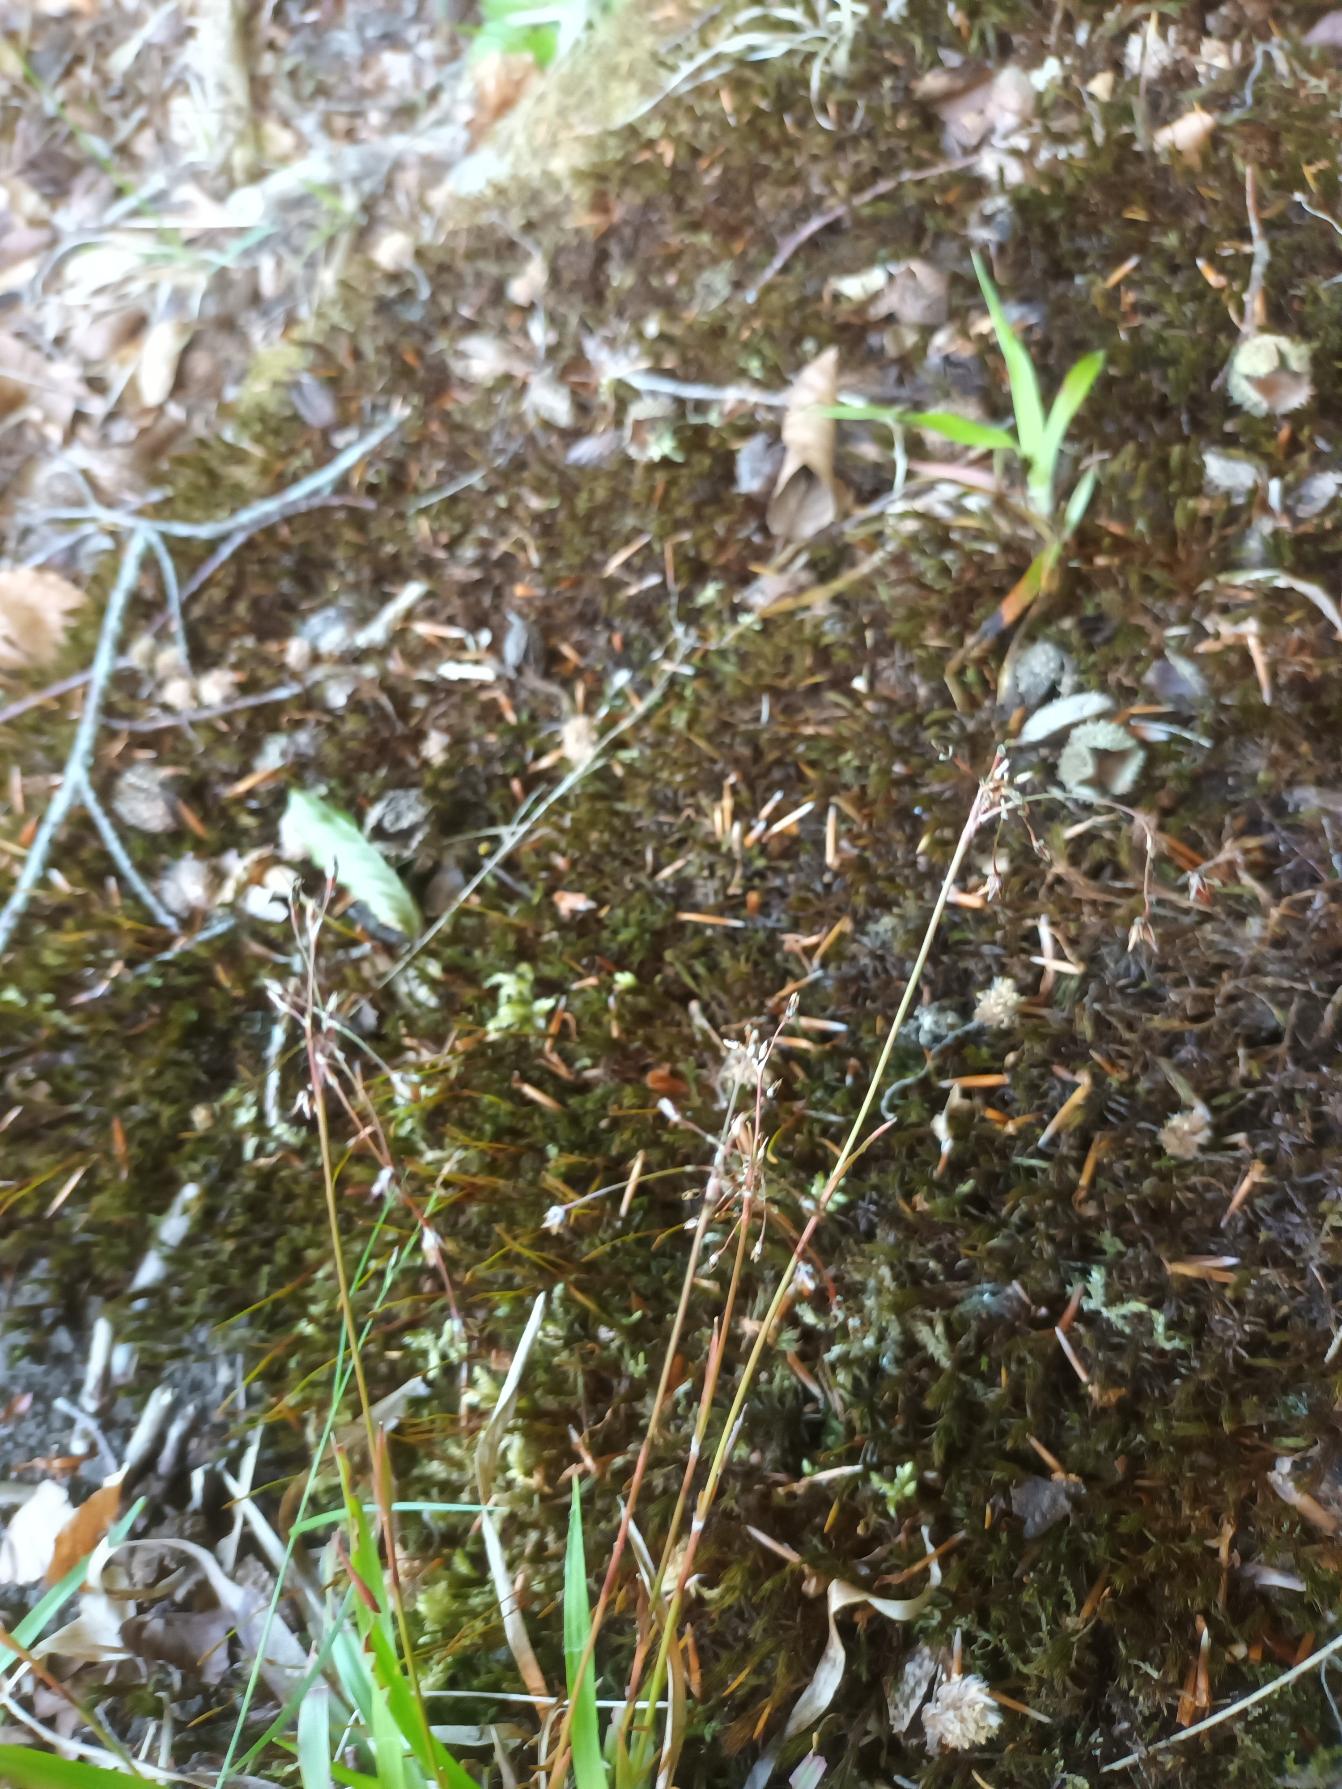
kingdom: Plantae
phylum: Tracheophyta
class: Liliopsida
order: Poales
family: Juncaceae
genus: Luzula
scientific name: Luzula pilosa
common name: Håret frytle
